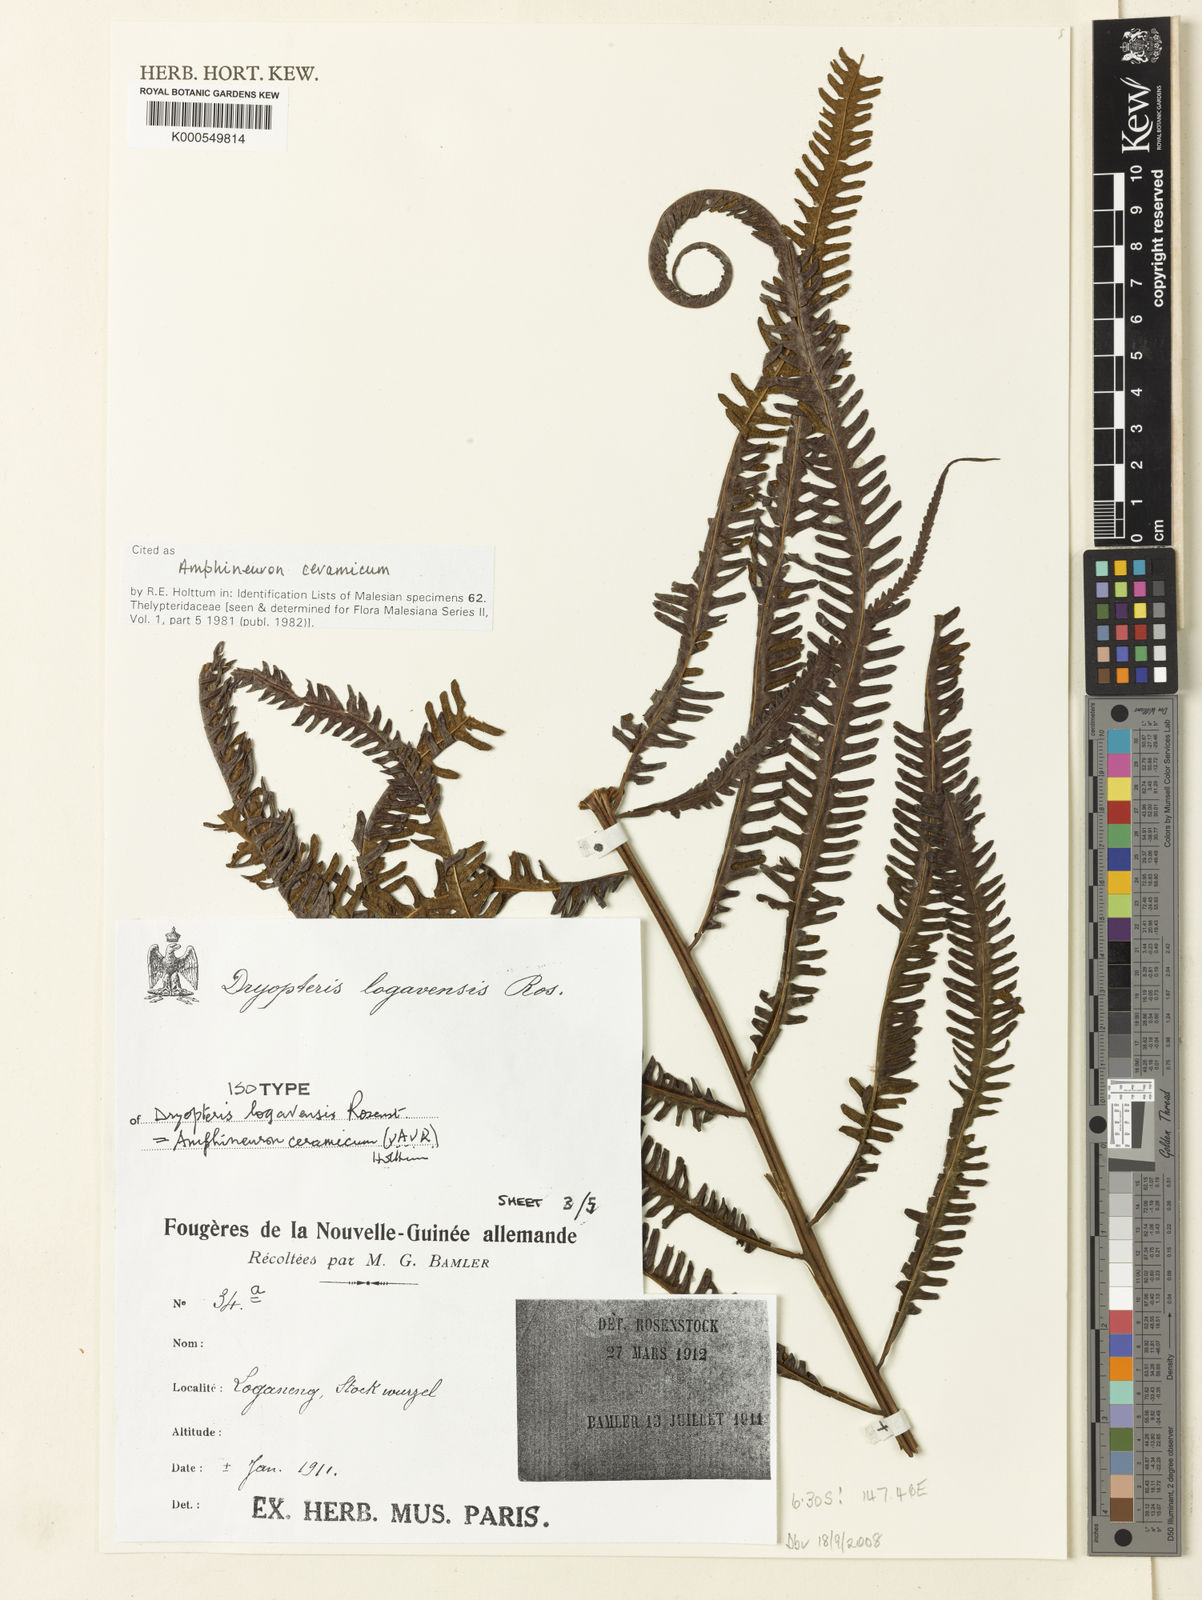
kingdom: Plantae
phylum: Tracheophyta
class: Polypodiopsida
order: Polypodiales
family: Thelypteridaceae
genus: Mesopteris
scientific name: Mesopteris ceramica
